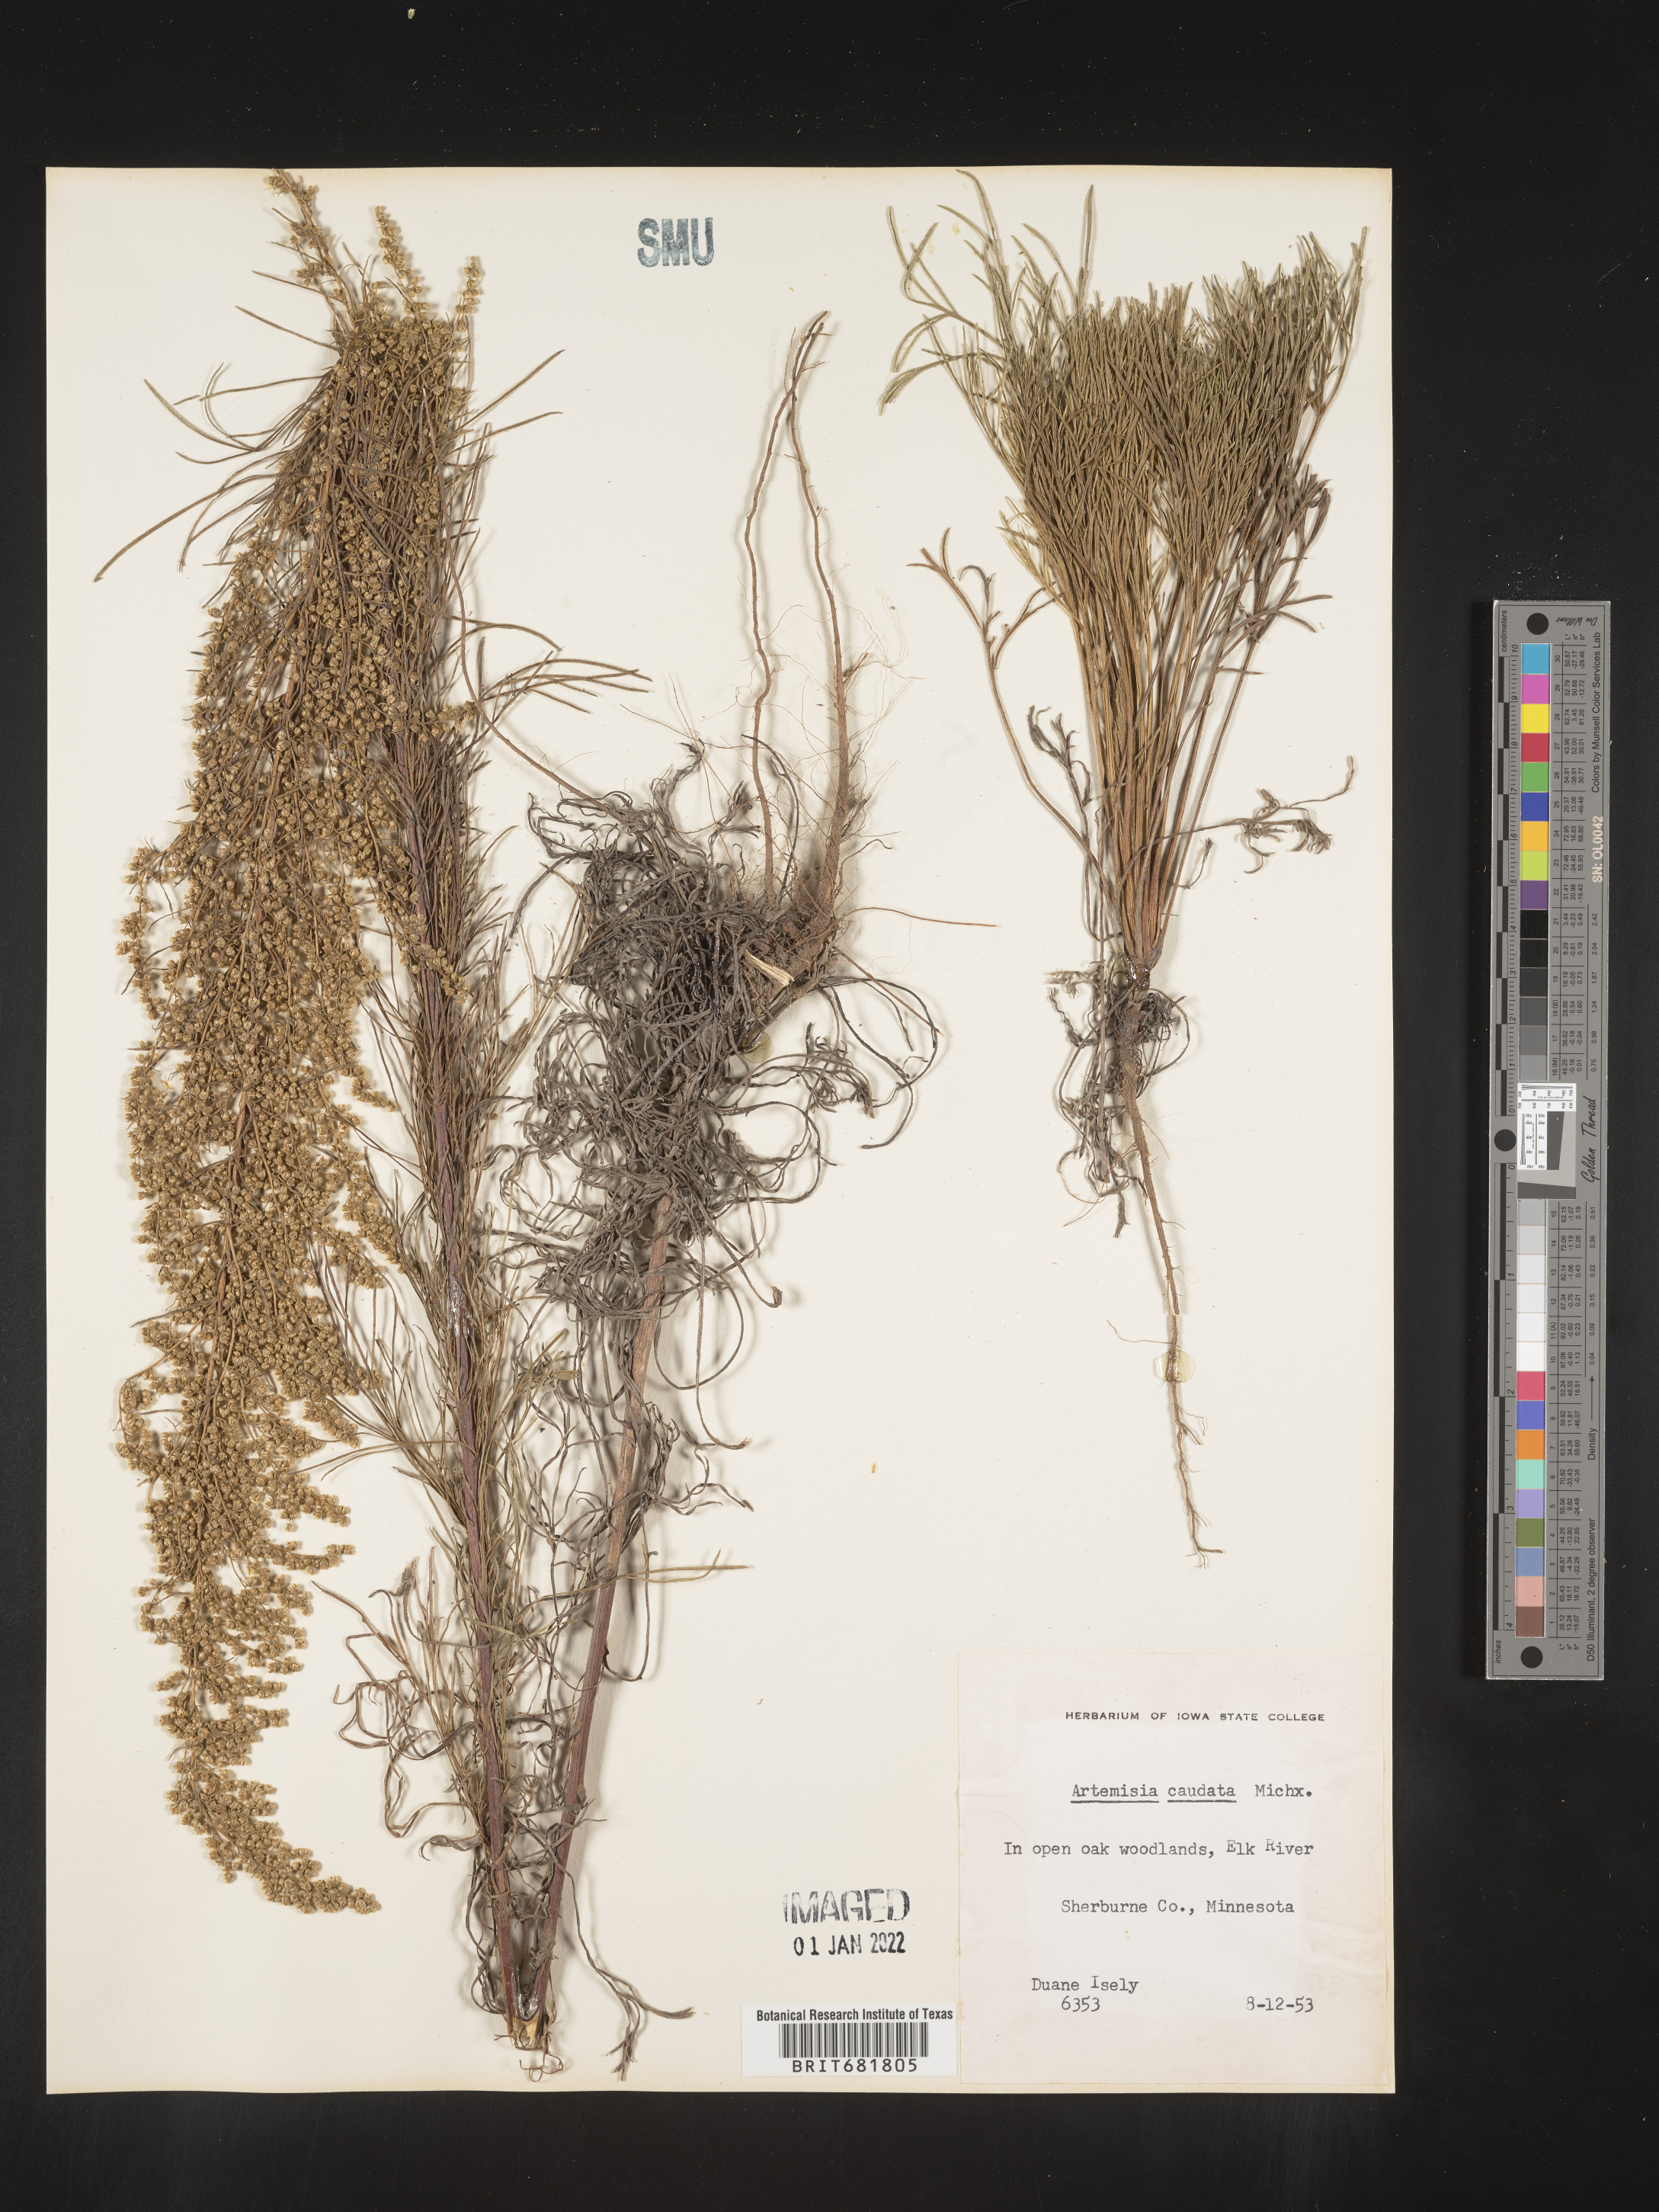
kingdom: Plantae
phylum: Tracheophyta
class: Magnoliopsida
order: Asterales
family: Asteraceae
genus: Artemisia
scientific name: Artemisia campestris
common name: Field wormwood
